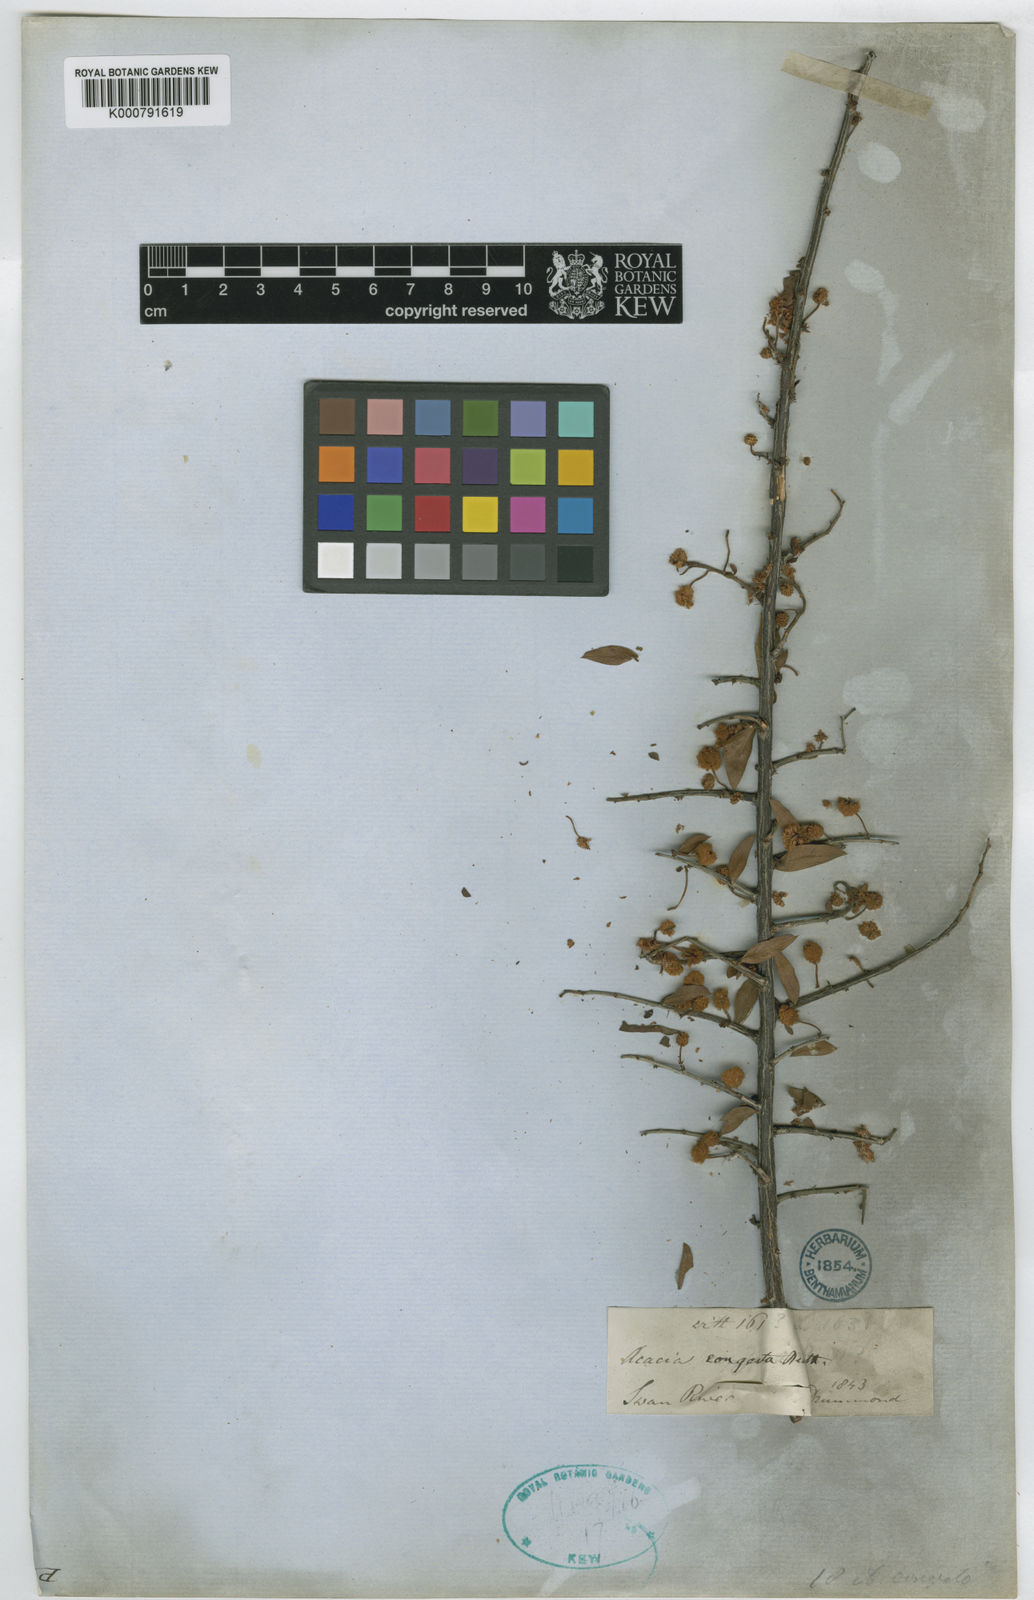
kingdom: Plantae
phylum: Tracheophyta
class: Magnoliopsida
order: Fabales
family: Fabaceae
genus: Acacia
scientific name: Acacia congesta
